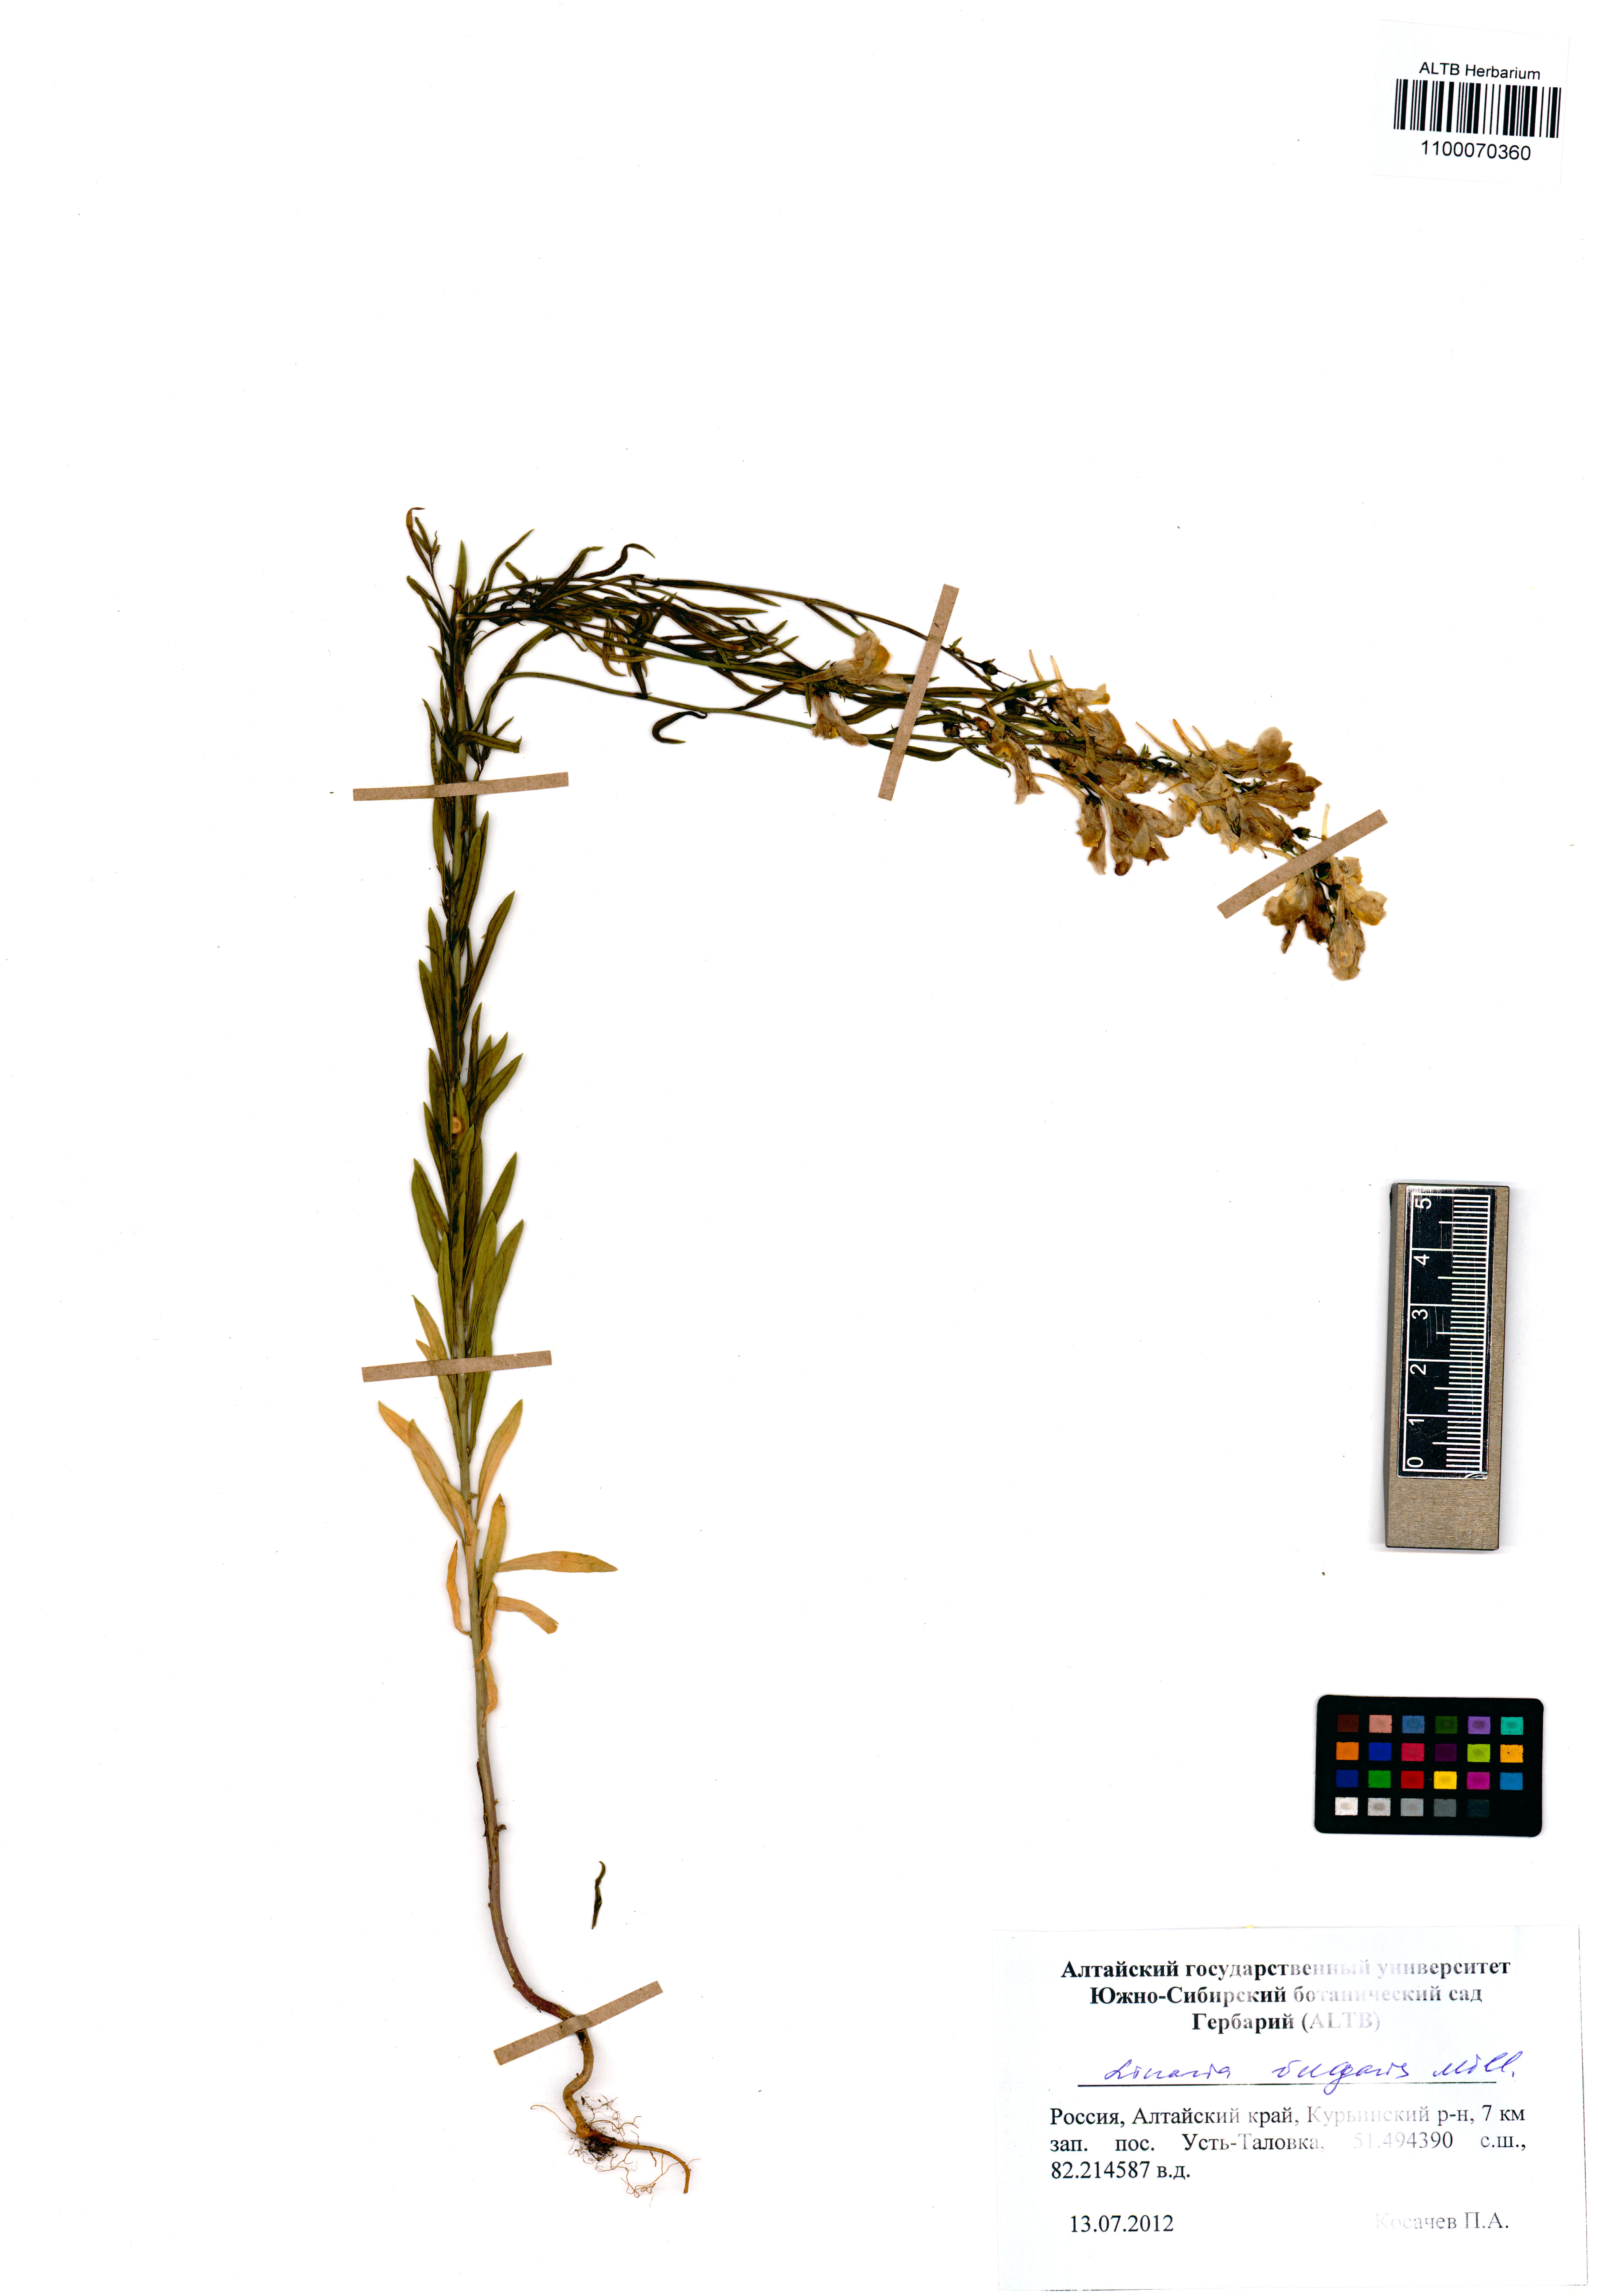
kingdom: Plantae
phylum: Tracheophyta
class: Magnoliopsida
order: Lamiales
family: Plantaginaceae
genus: Linaria
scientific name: Linaria vulgaris
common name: Butter and eggs
